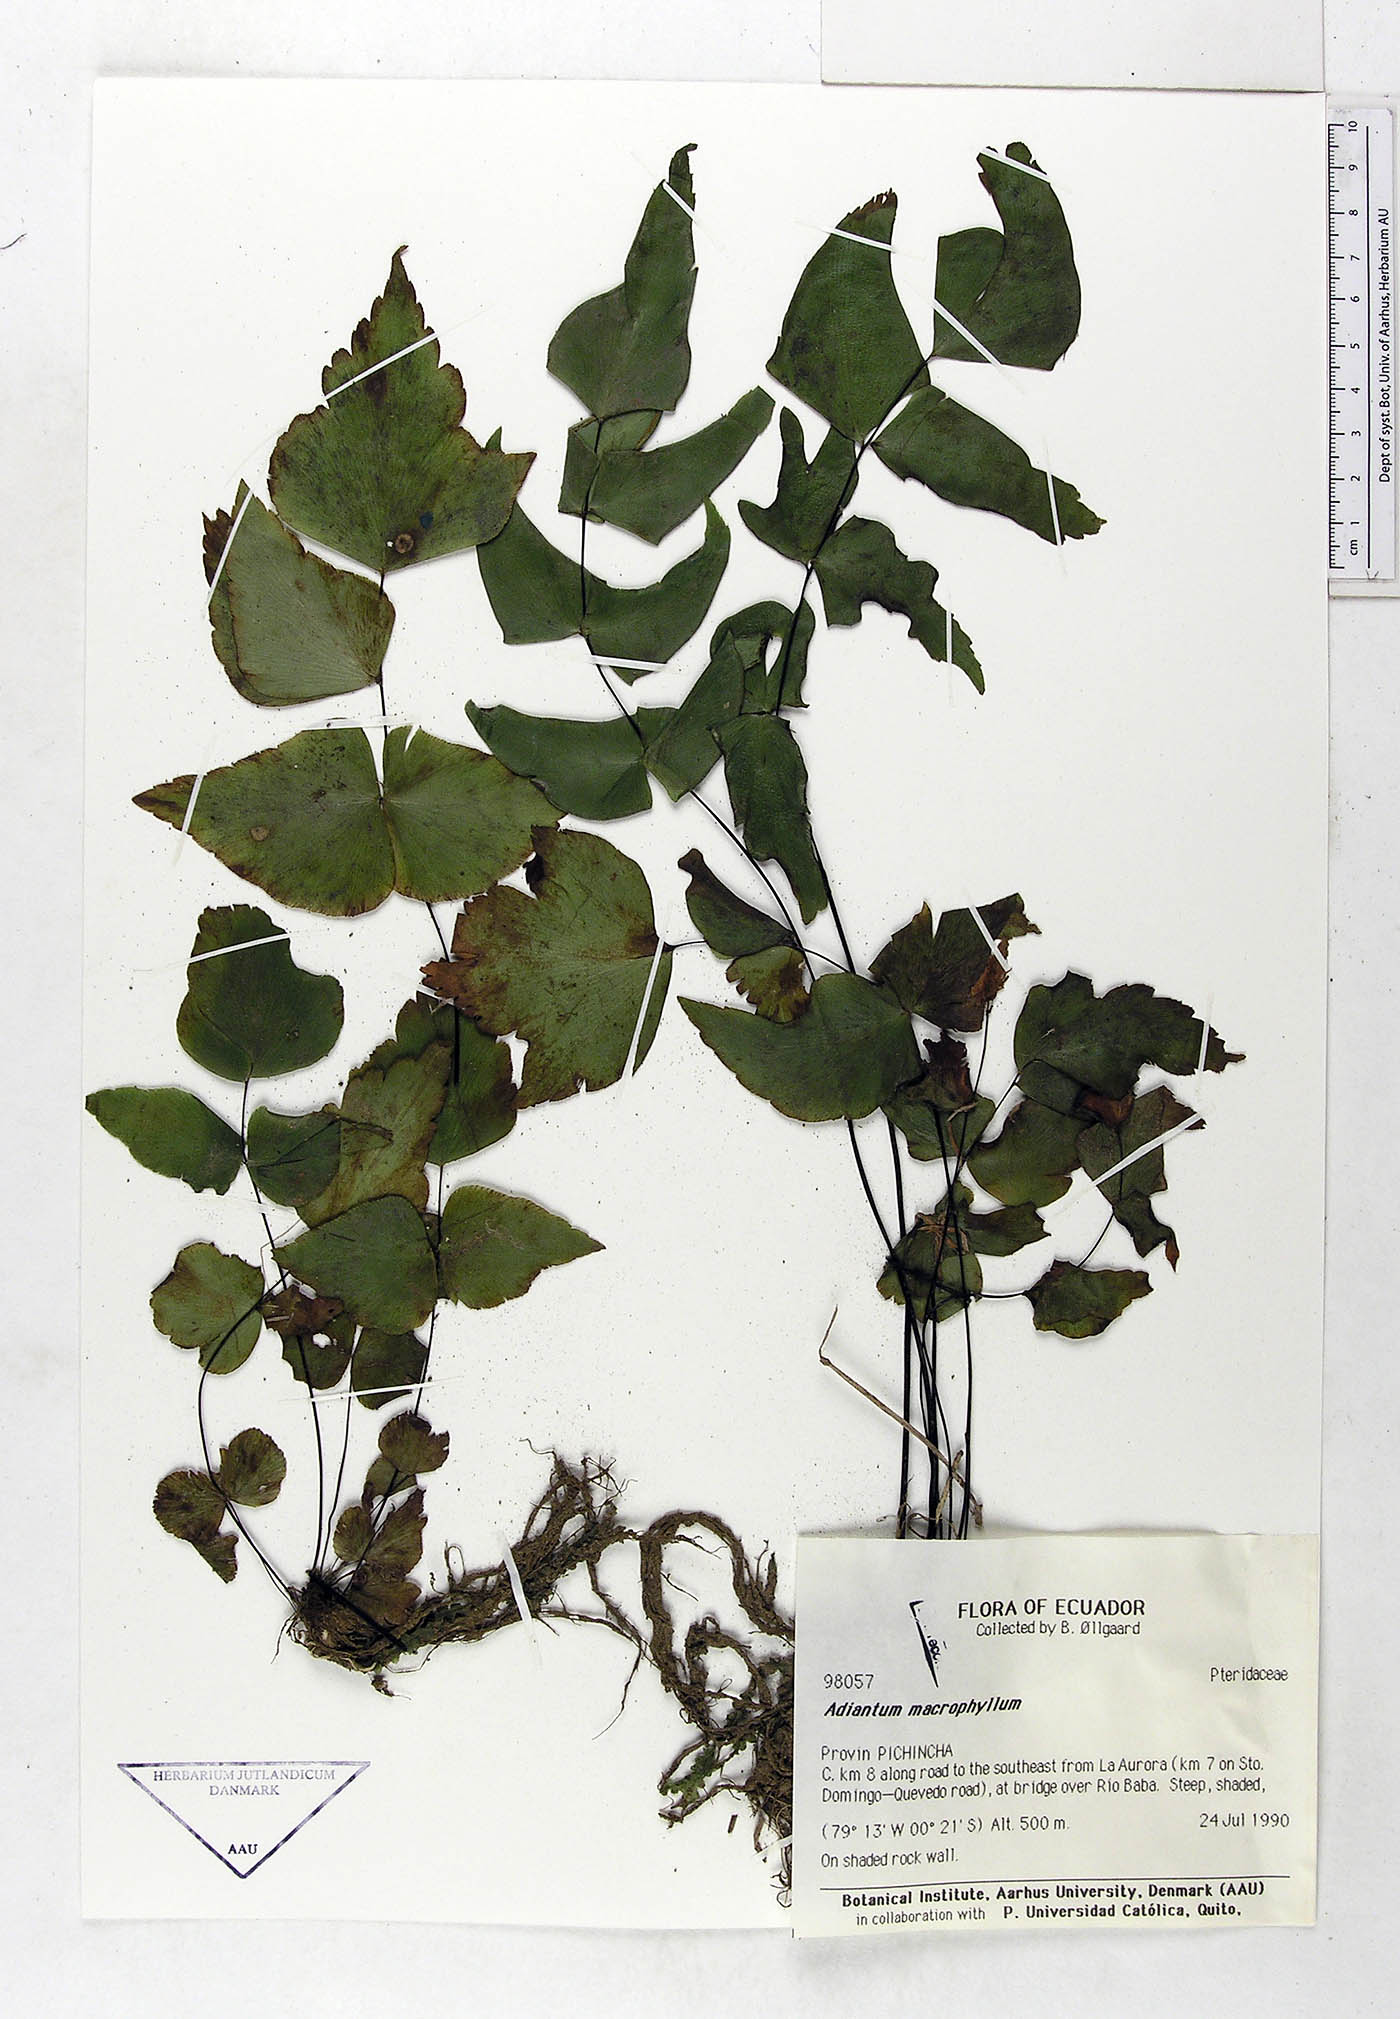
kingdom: Plantae
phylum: Tracheophyta
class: Polypodiopsida
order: Polypodiales
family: Pteridaceae
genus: Adiantum
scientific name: Adiantum macrophyllum
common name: Largeleaf maidenhair
